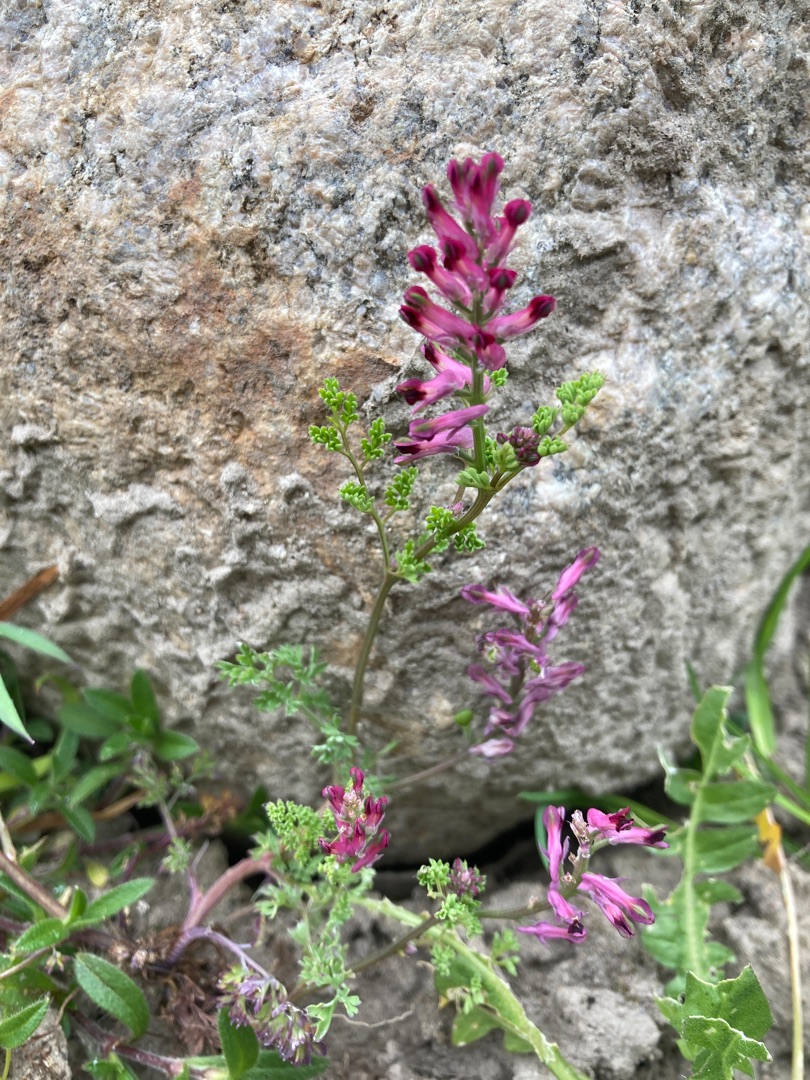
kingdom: Plantae
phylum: Tracheophyta
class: Magnoliopsida
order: Ranunculales
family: Papaveraceae
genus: Fumaria
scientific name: Fumaria officinalis
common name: Læge-jordrøg
